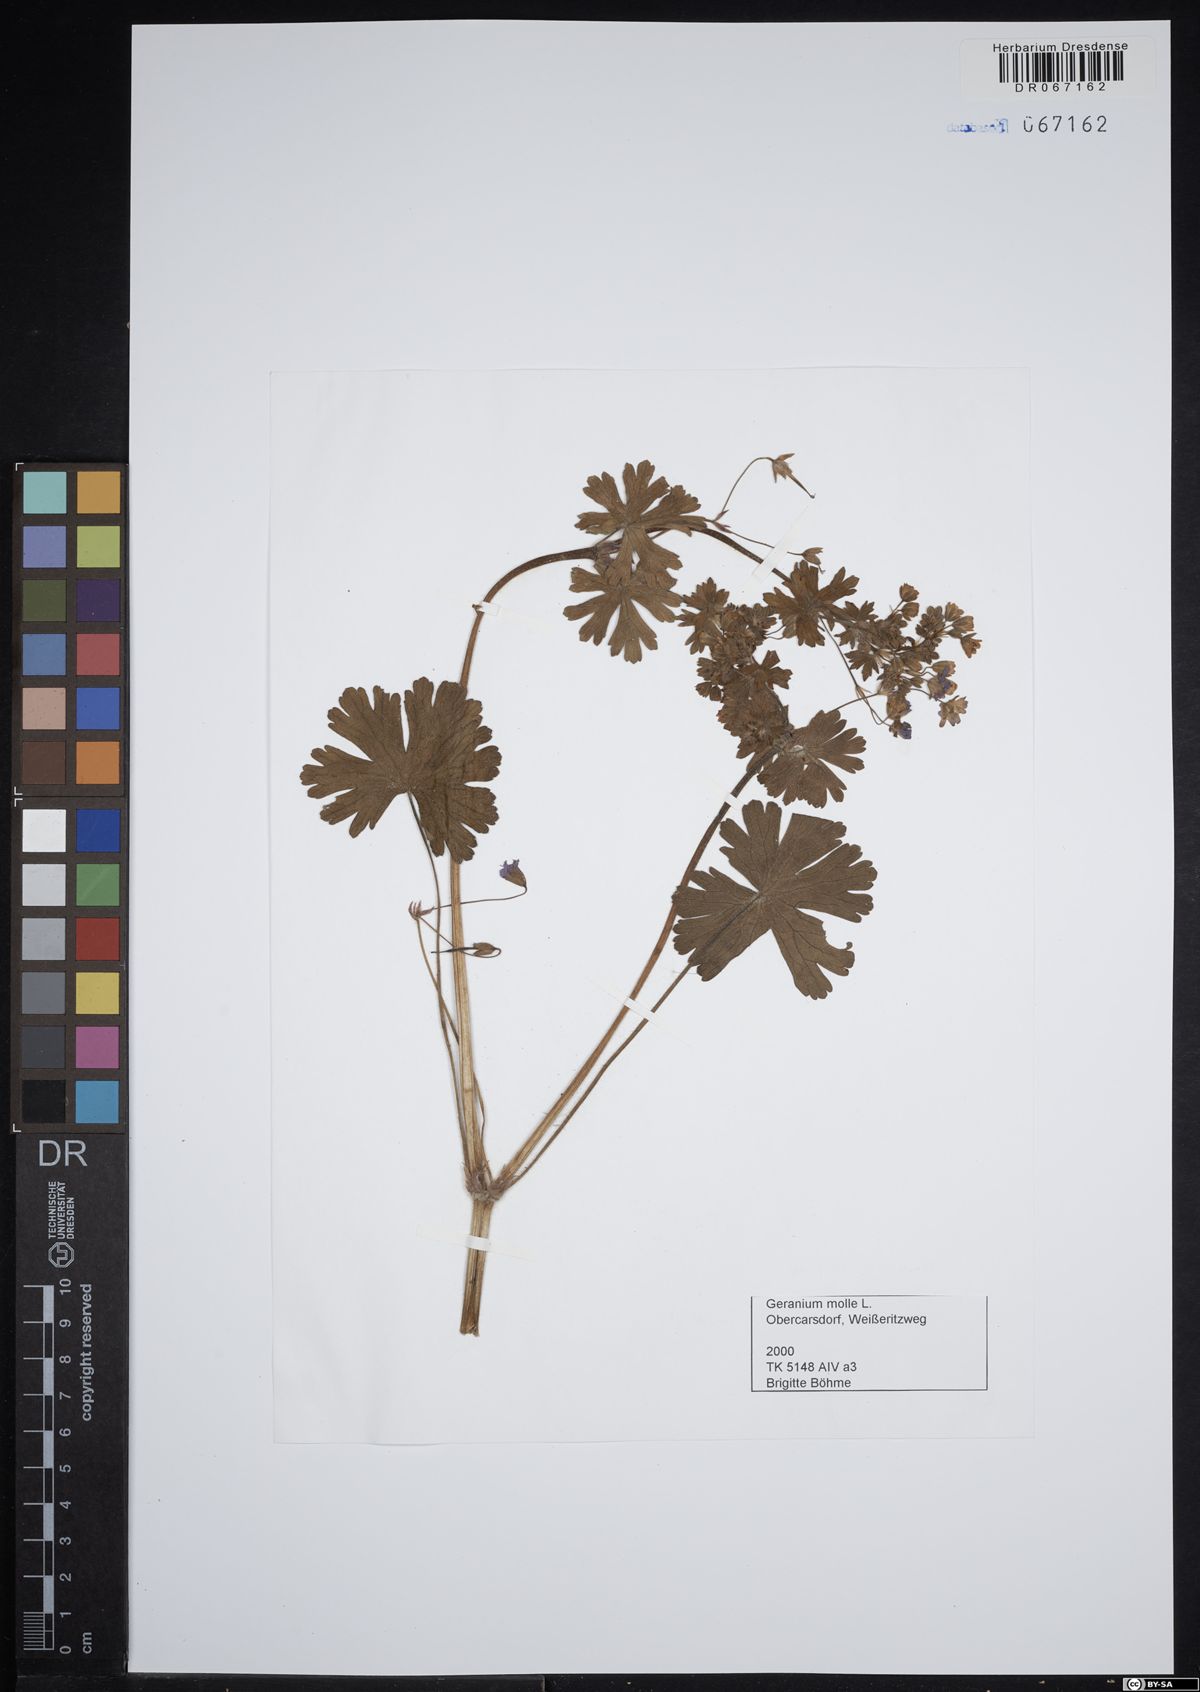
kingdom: Plantae
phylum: Tracheophyta
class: Magnoliopsida
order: Geraniales
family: Geraniaceae
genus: Geranium
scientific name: Geranium molle
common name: Dove's-foot crane's-bill
